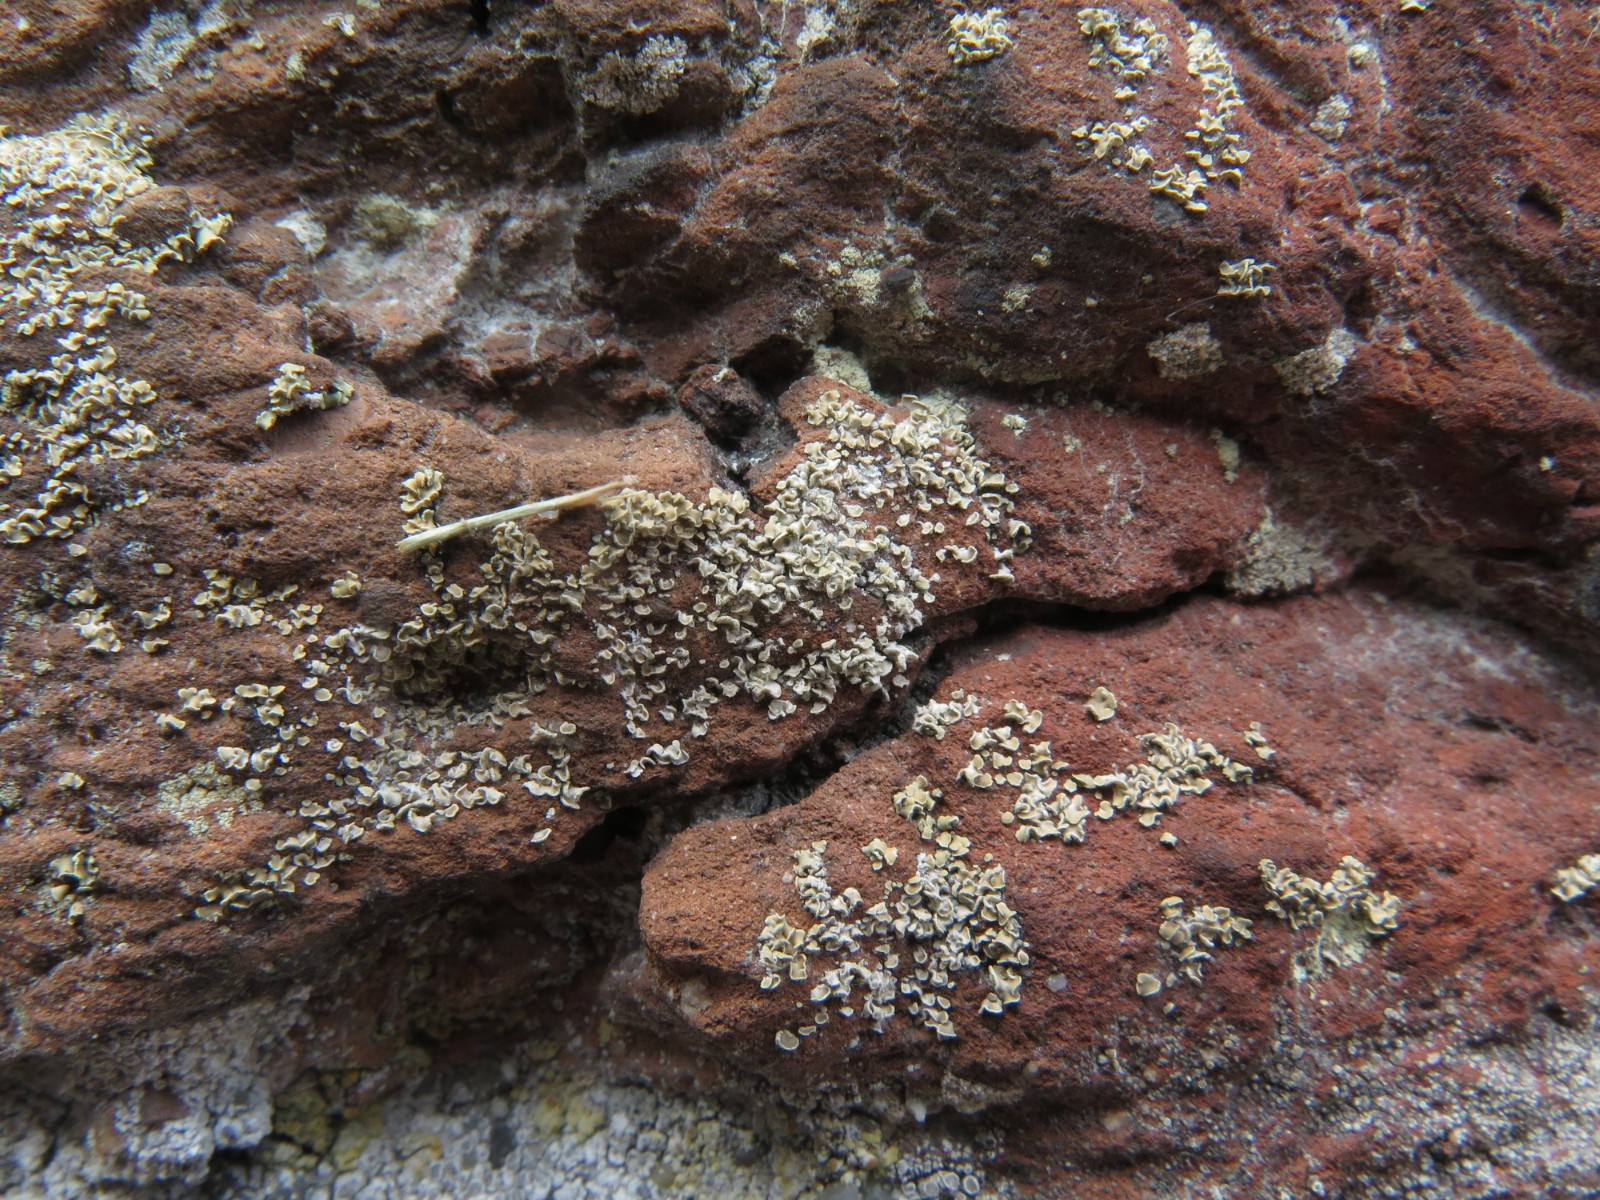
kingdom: Fungi
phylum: Ascomycota
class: Lecanoromycetes
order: Umbilicariales
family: Ophioparmaceae
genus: Hypocenomyce
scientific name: Hypocenomyce scalaris
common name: småskællet muslinglav
